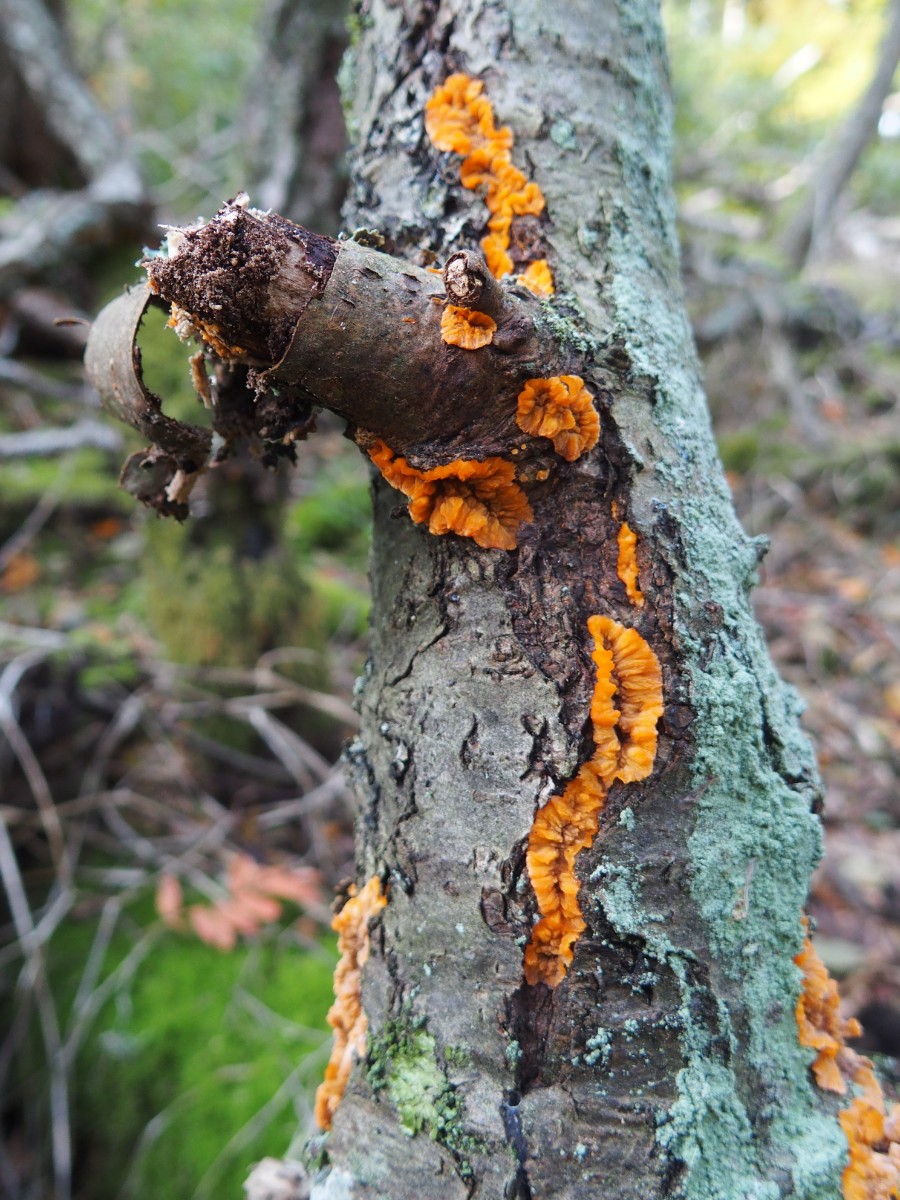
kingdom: Fungi
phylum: Basidiomycota
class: Agaricomycetes
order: Polyporales
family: Meruliaceae
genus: Phlebia
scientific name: Phlebia radiata
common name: stråle-åresvamp
